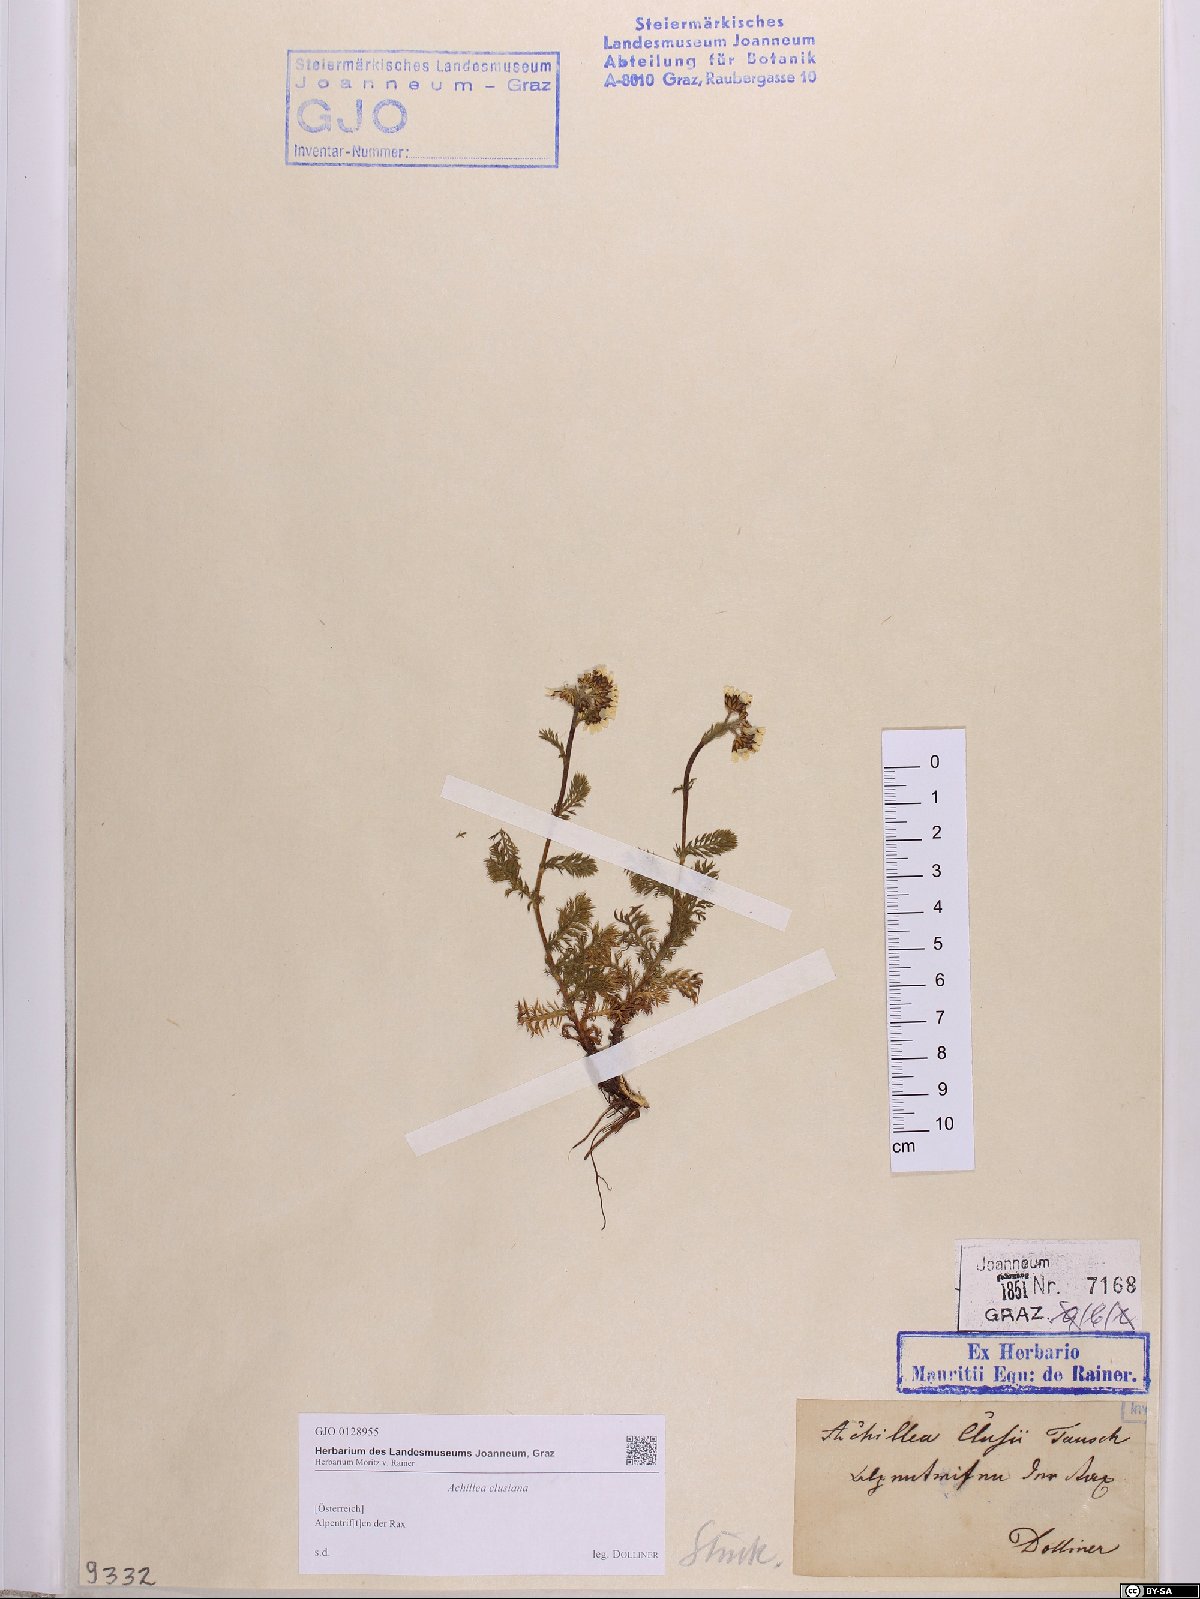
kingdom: Plantae
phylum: Tracheophyta
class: Magnoliopsida
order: Asterales
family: Asteraceae
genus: Achillea
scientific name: Achillea clusiana
